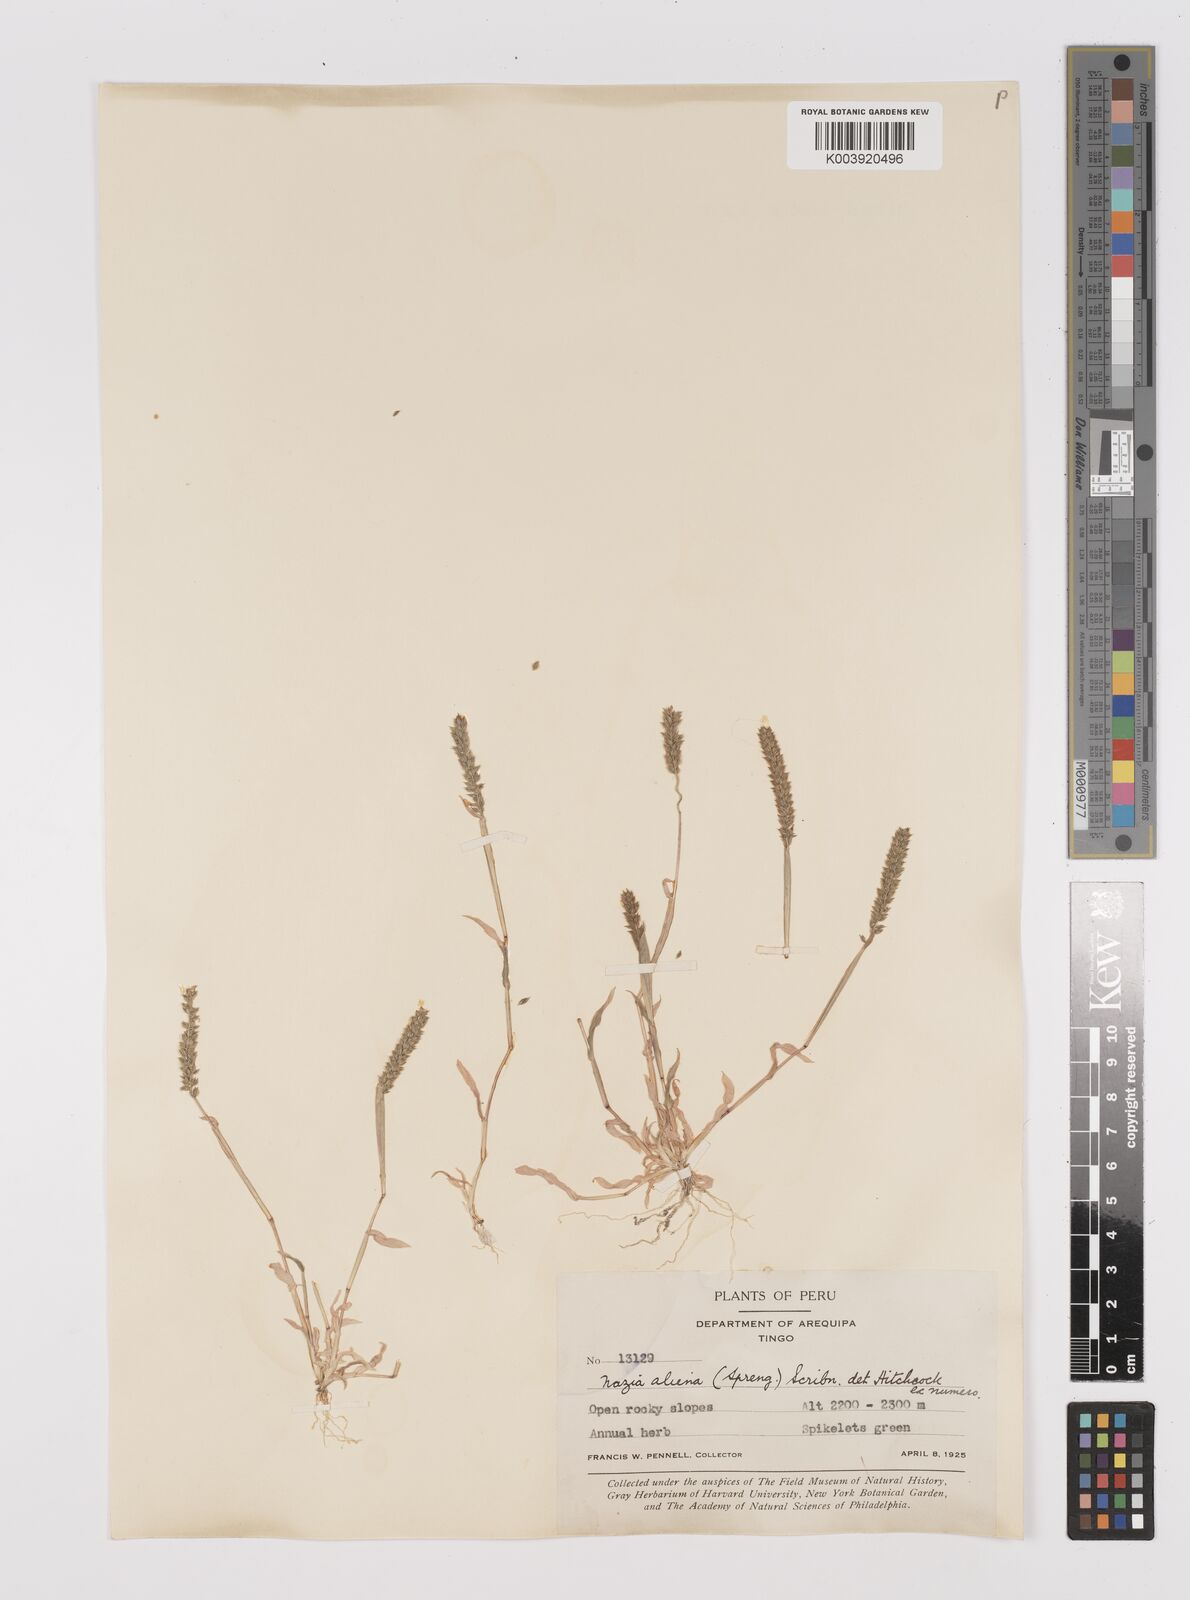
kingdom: Plantae
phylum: Tracheophyta
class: Liliopsida
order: Poales
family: Poaceae
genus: Tragus
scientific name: Tragus berteronianus
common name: African bur-grass
